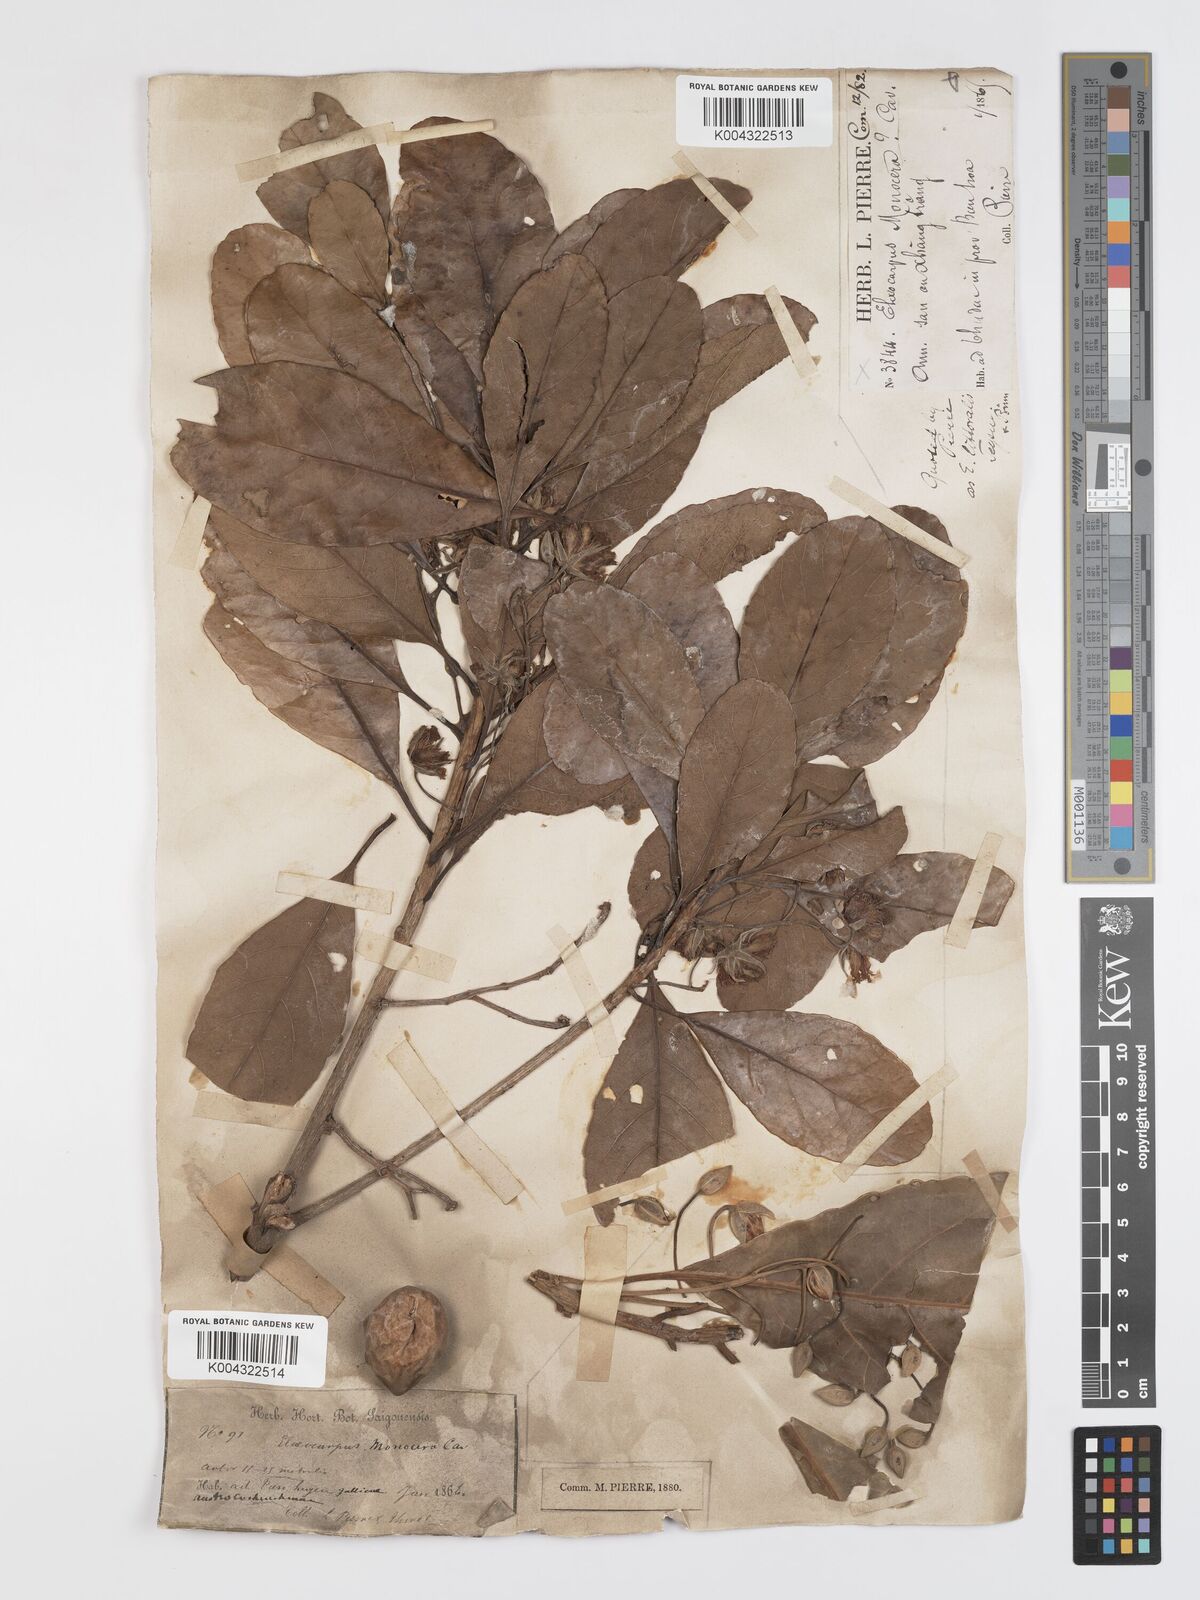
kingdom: Plantae
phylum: Tracheophyta
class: Magnoliopsida
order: Oxalidales
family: Elaeocarpaceae
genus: Elaeocarpus
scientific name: Elaeocarpus macrocerus
